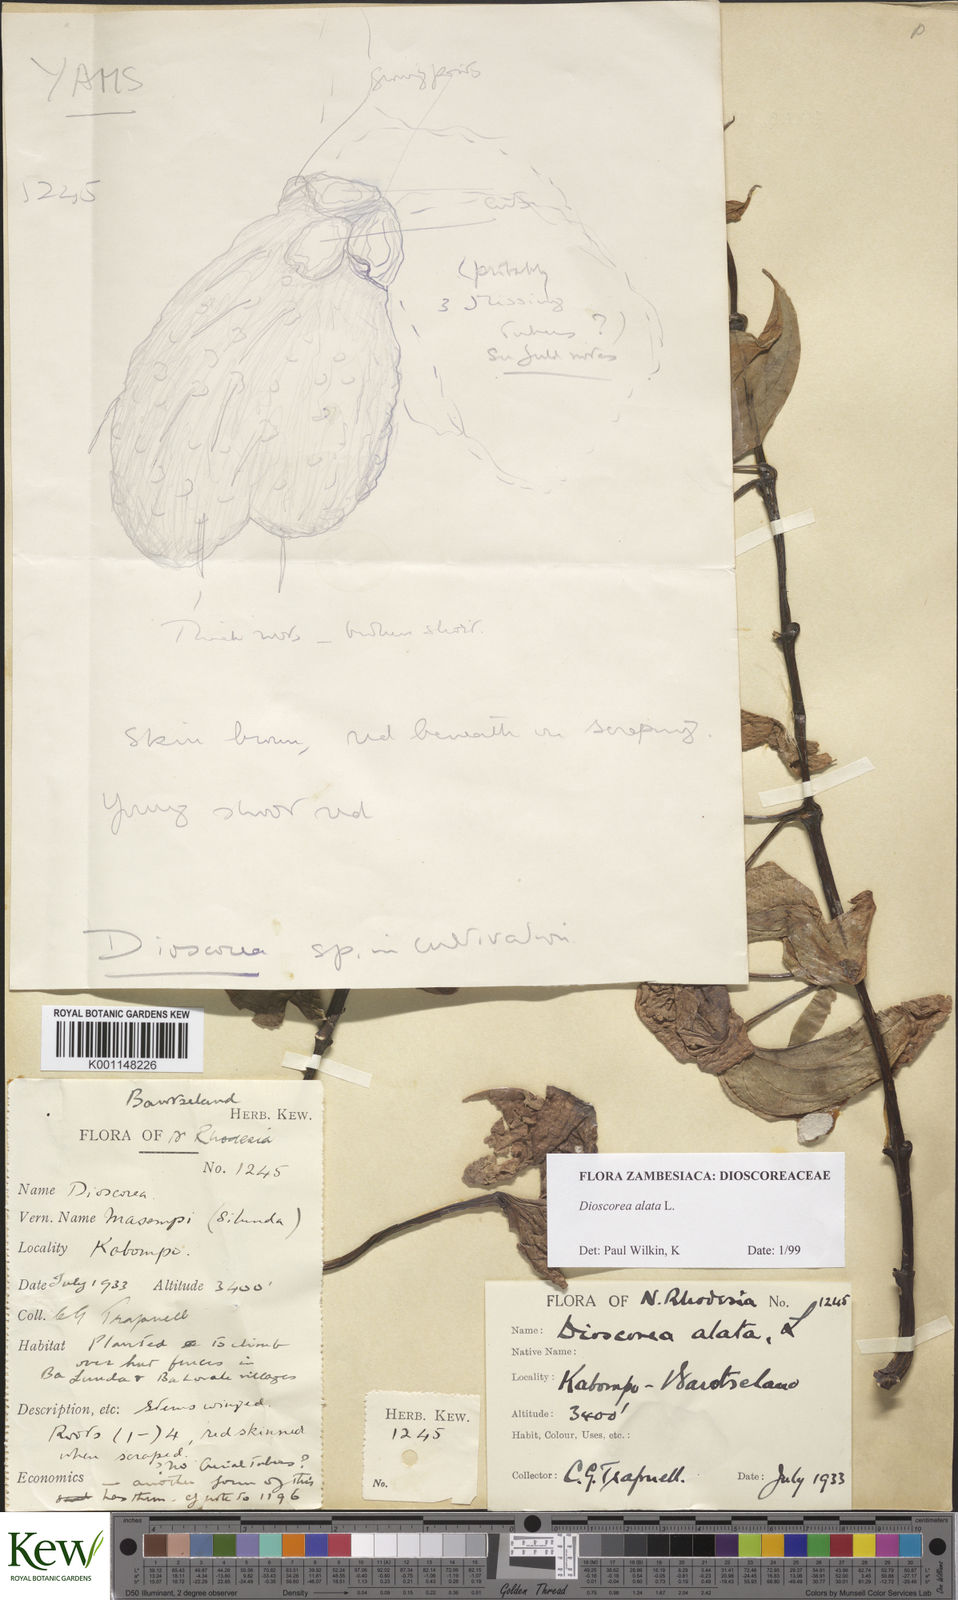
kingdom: Plantae
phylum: Tracheophyta
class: Liliopsida
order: Dioscoreales
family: Dioscoreaceae
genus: Dioscorea
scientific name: Dioscorea alata
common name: Water yam
